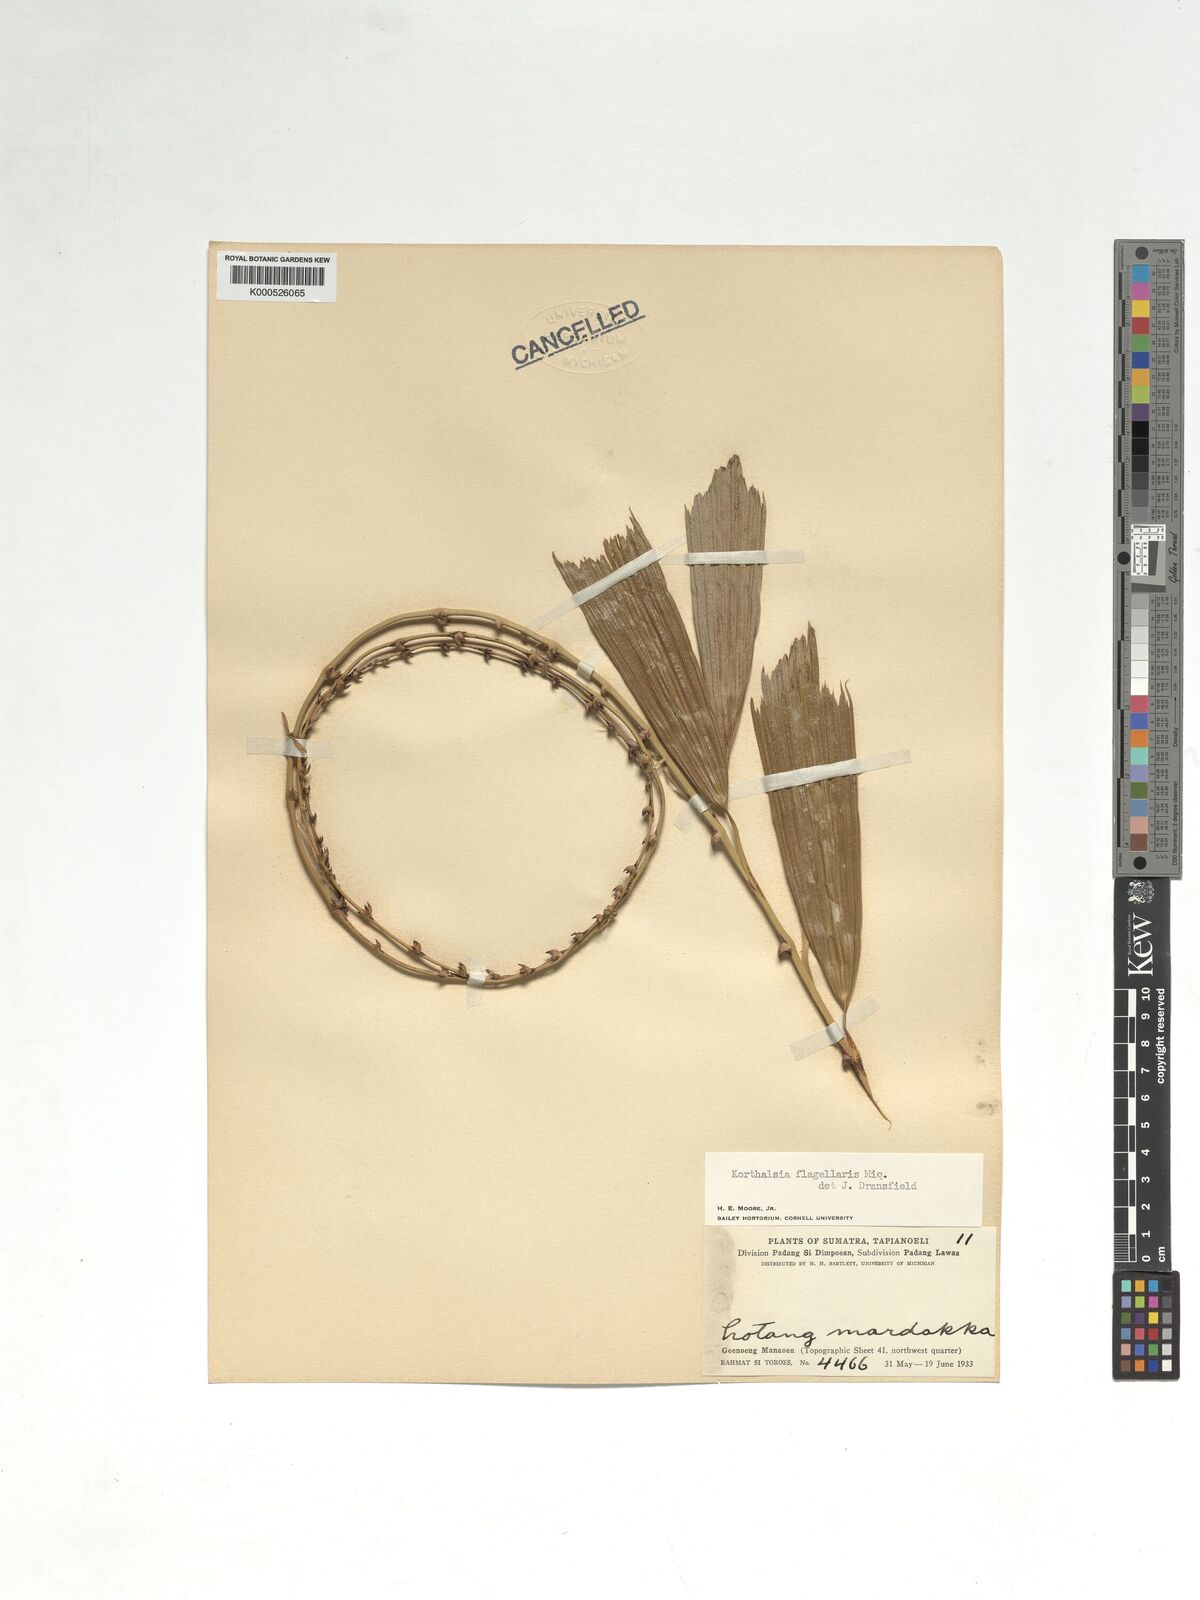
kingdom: Plantae
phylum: Tracheophyta
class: Liliopsida
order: Arecales
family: Arecaceae
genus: Korthalsia
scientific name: Korthalsia flagellaris
